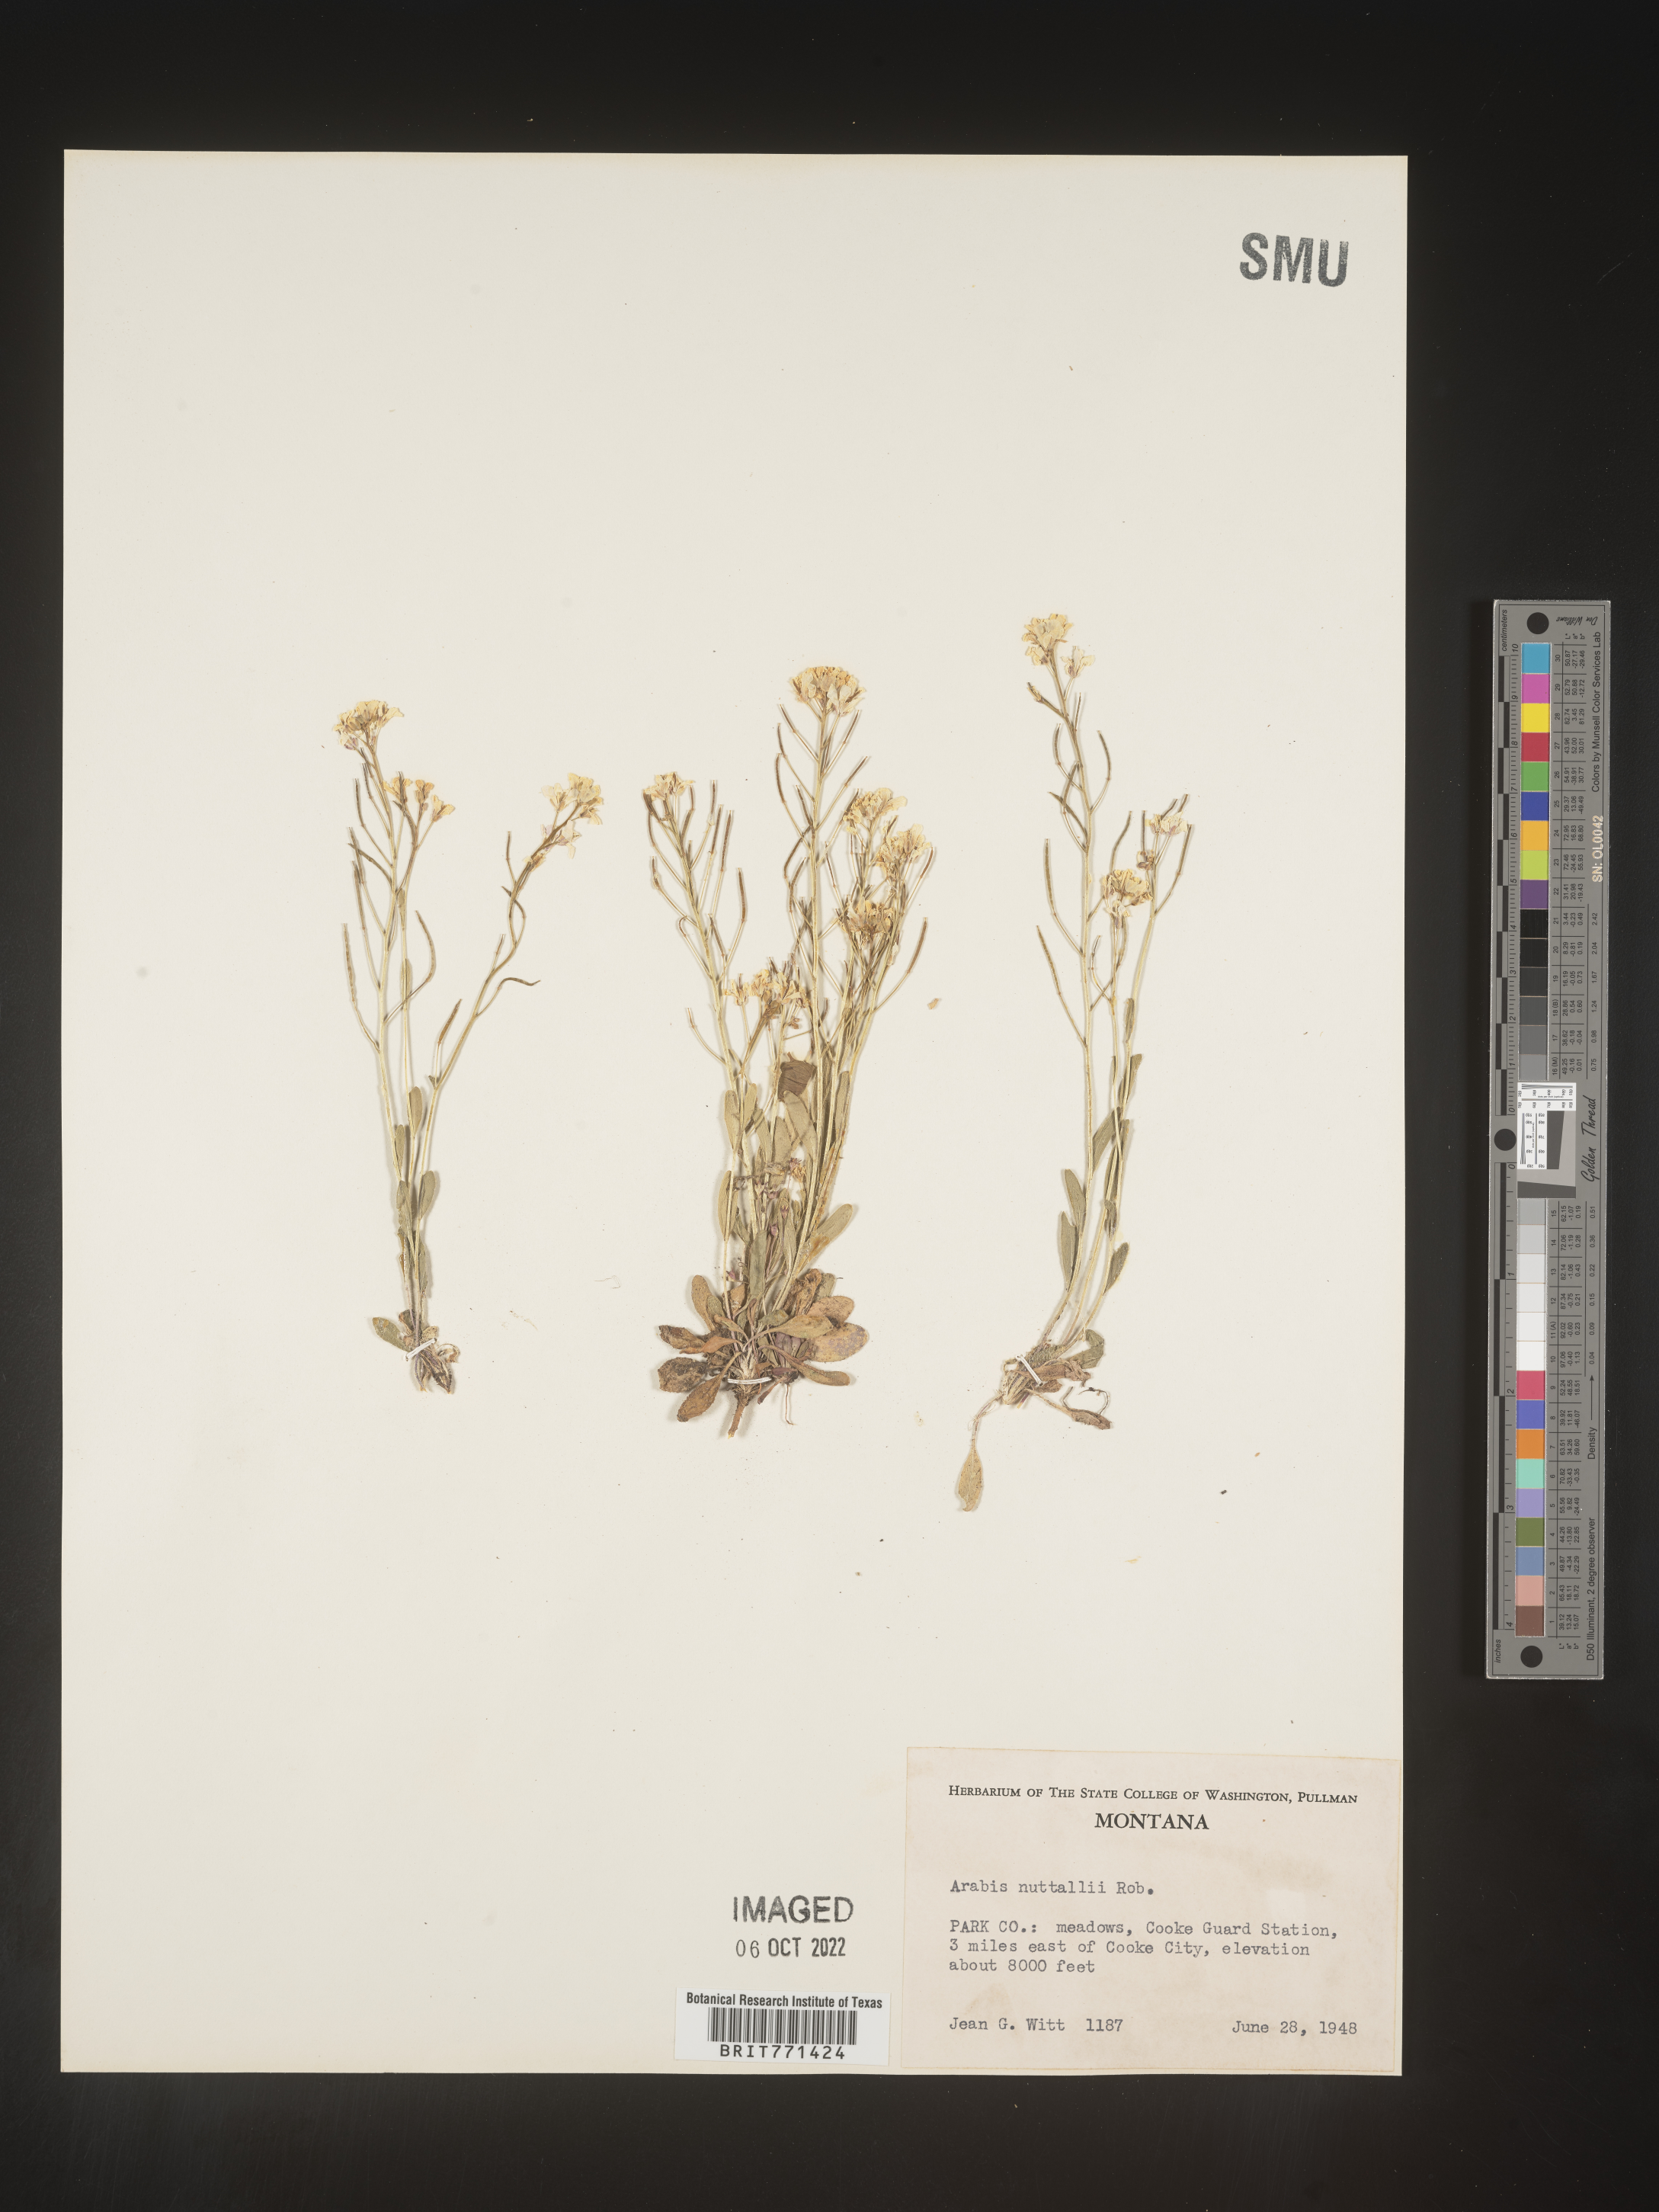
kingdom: Plantae
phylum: Tracheophyta
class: Magnoliopsida
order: Brassicales
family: Brassicaceae
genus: Arabis
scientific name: Arabis
